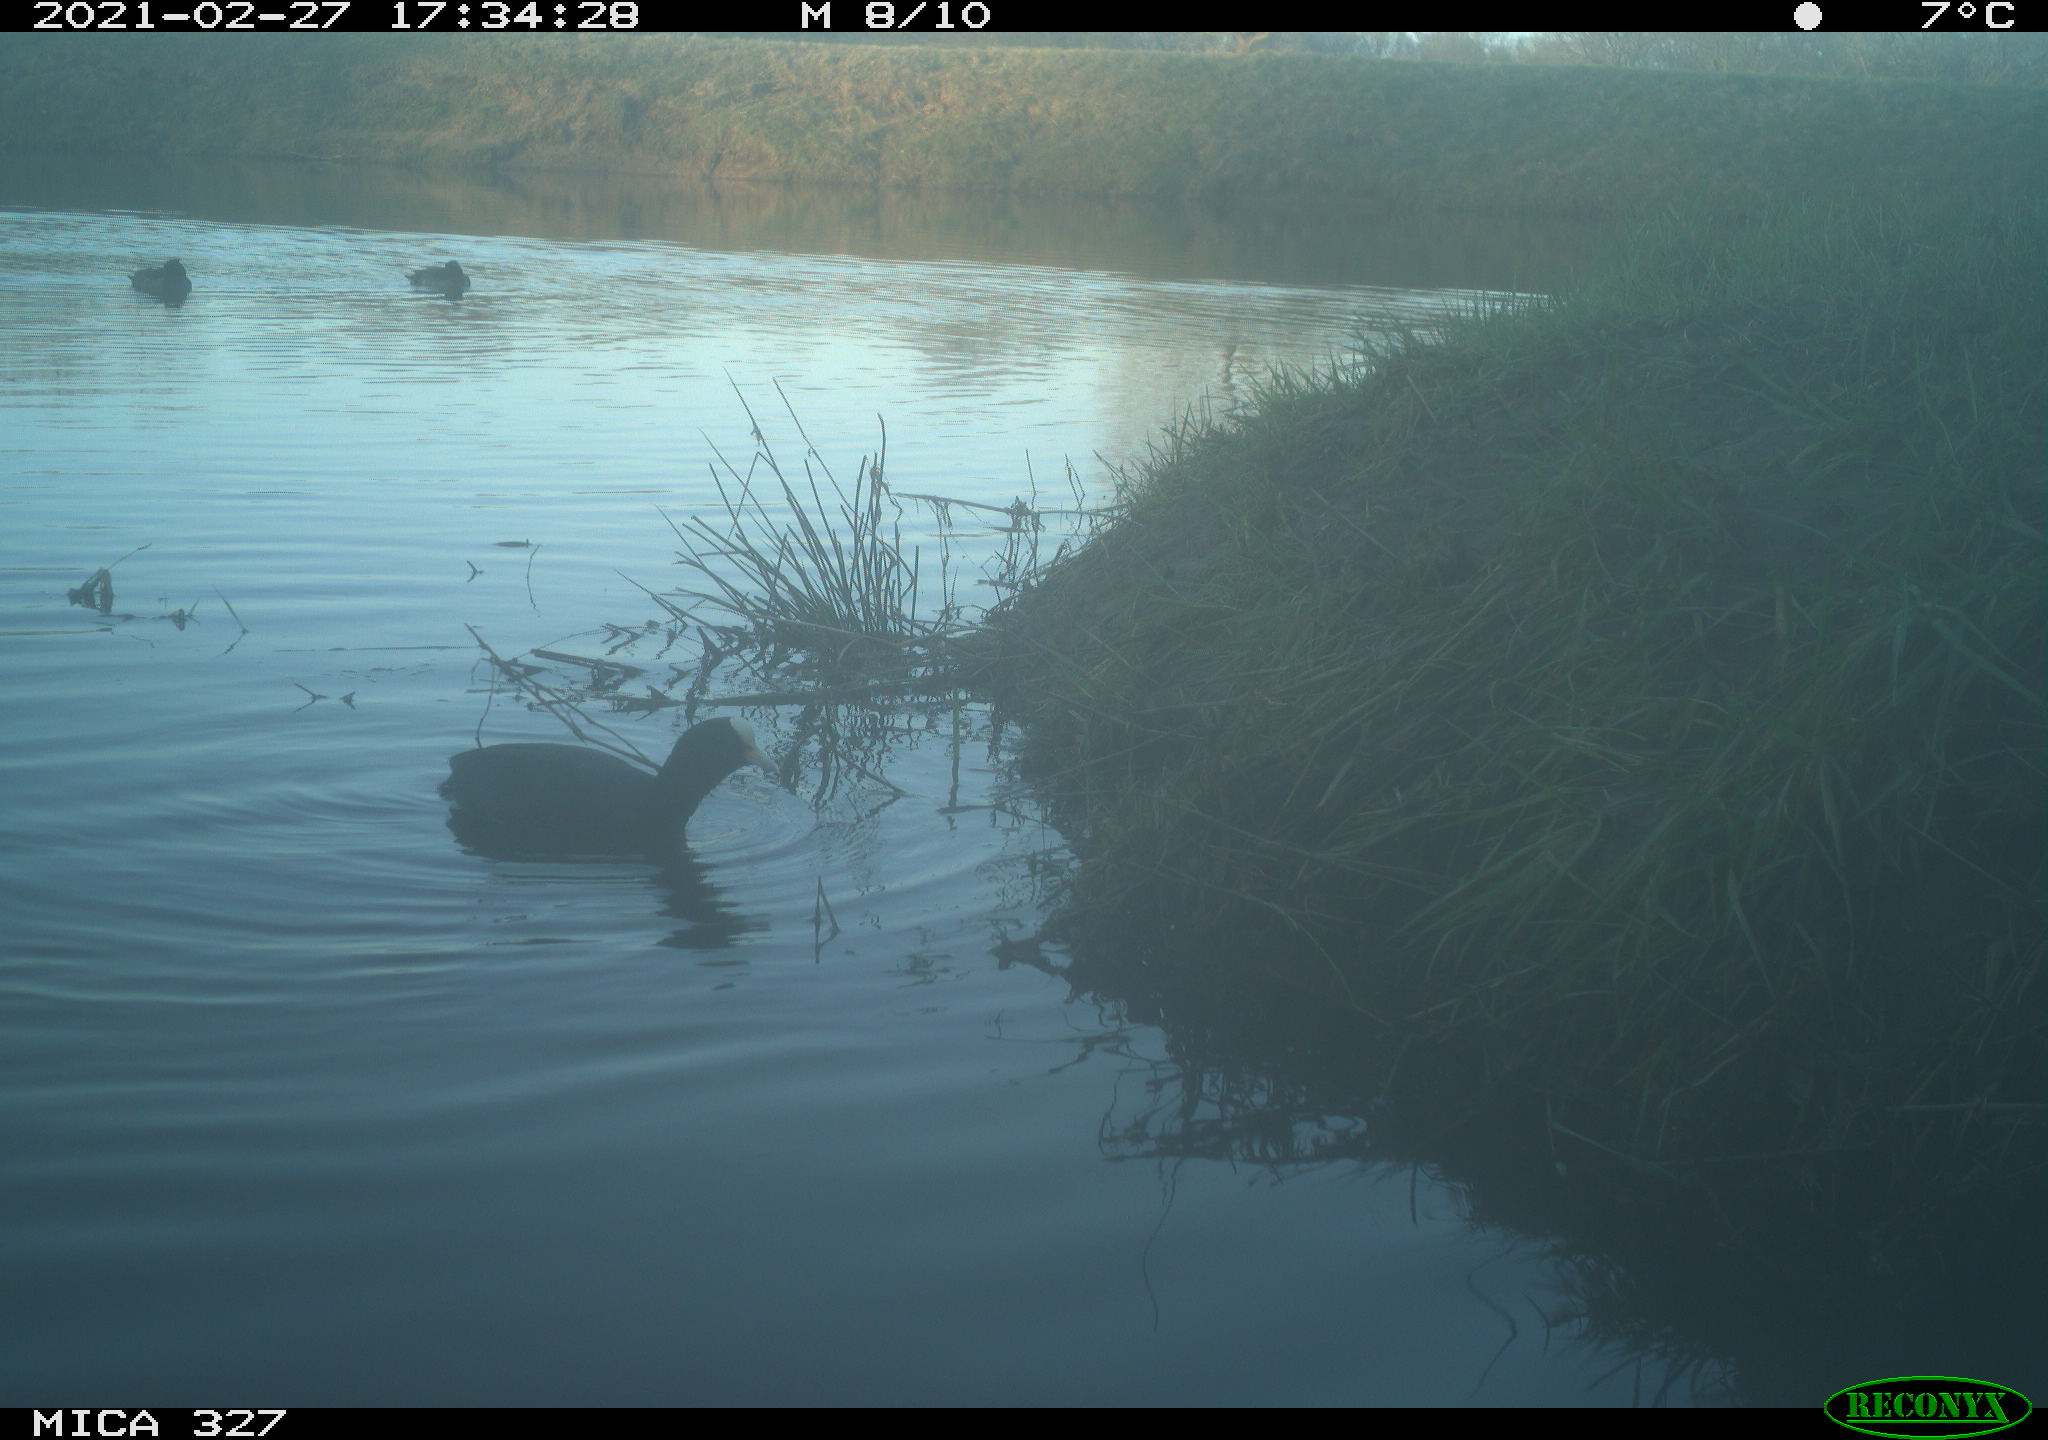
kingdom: Animalia
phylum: Chordata
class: Aves
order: Gruiformes
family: Rallidae
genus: Fulica
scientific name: Fulica atra
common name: Eurasian coot
